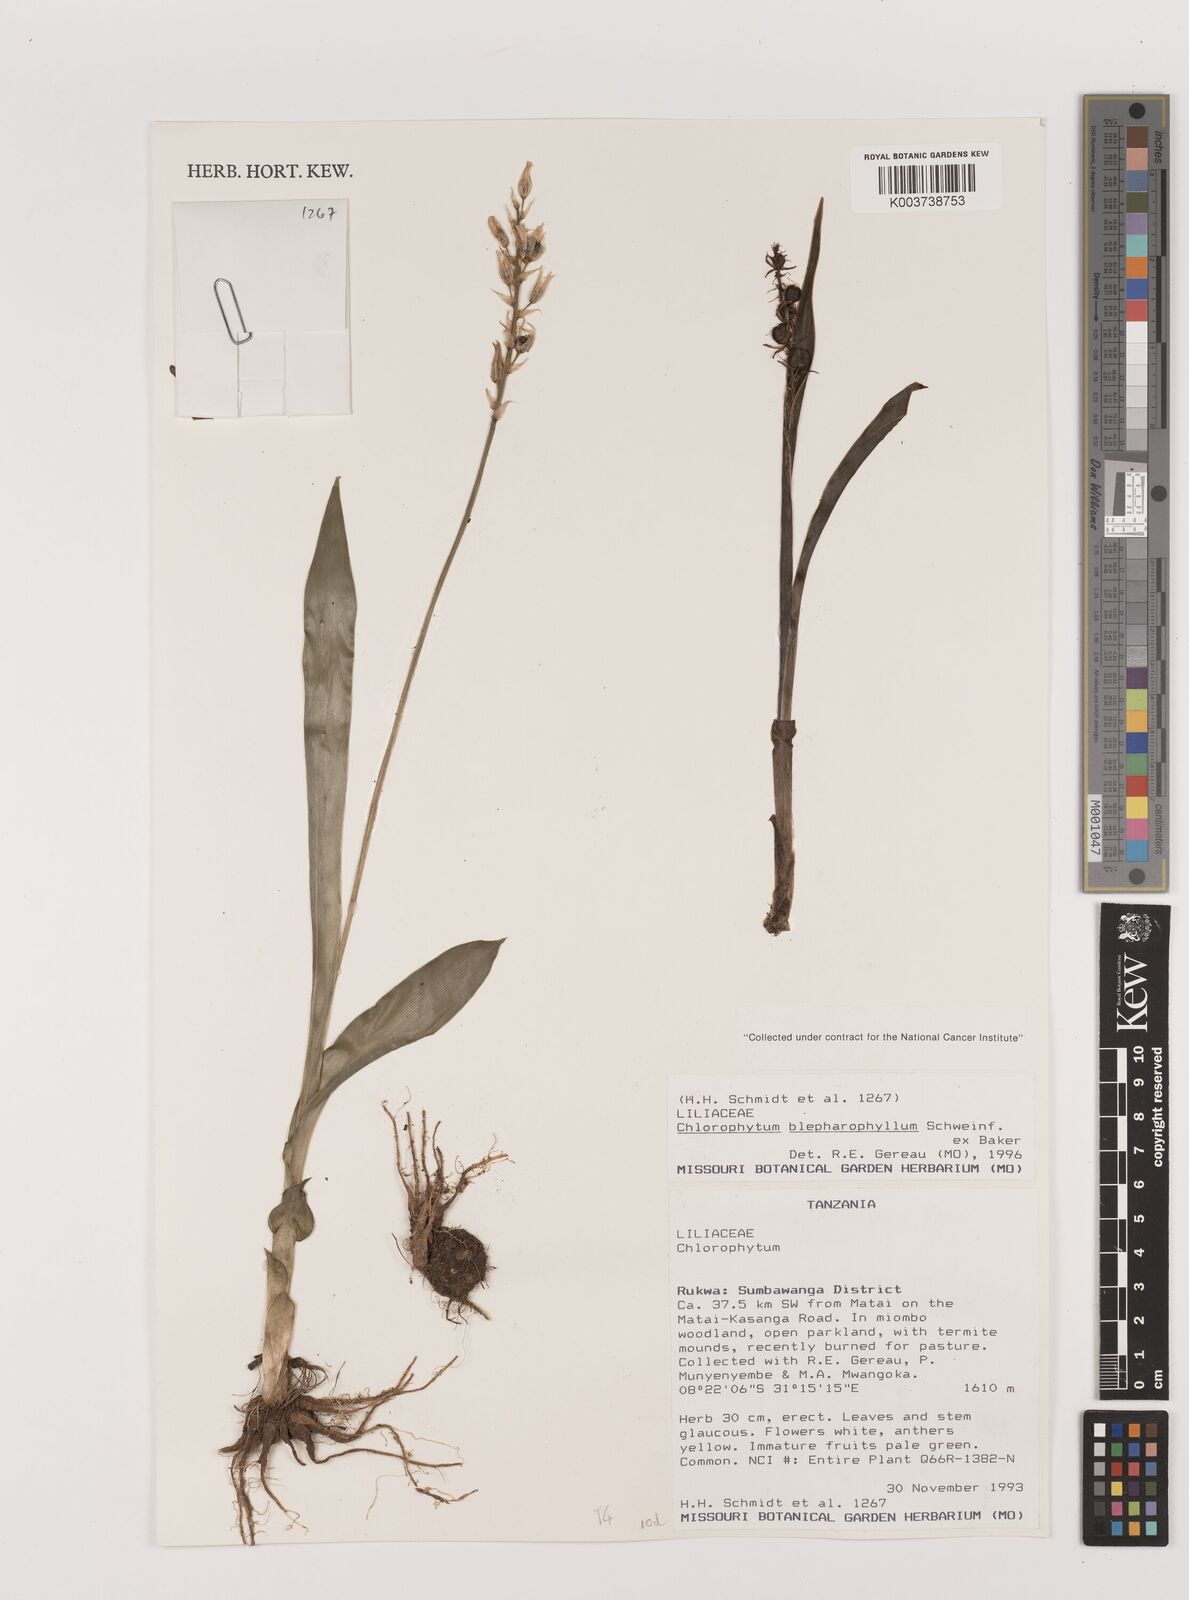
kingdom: Plantae
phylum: Tracheophyta
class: Liliopsida
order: Asparagales
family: Asparagaceae
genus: Chlorophytum
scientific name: Chlorophytum blepharophyllum
